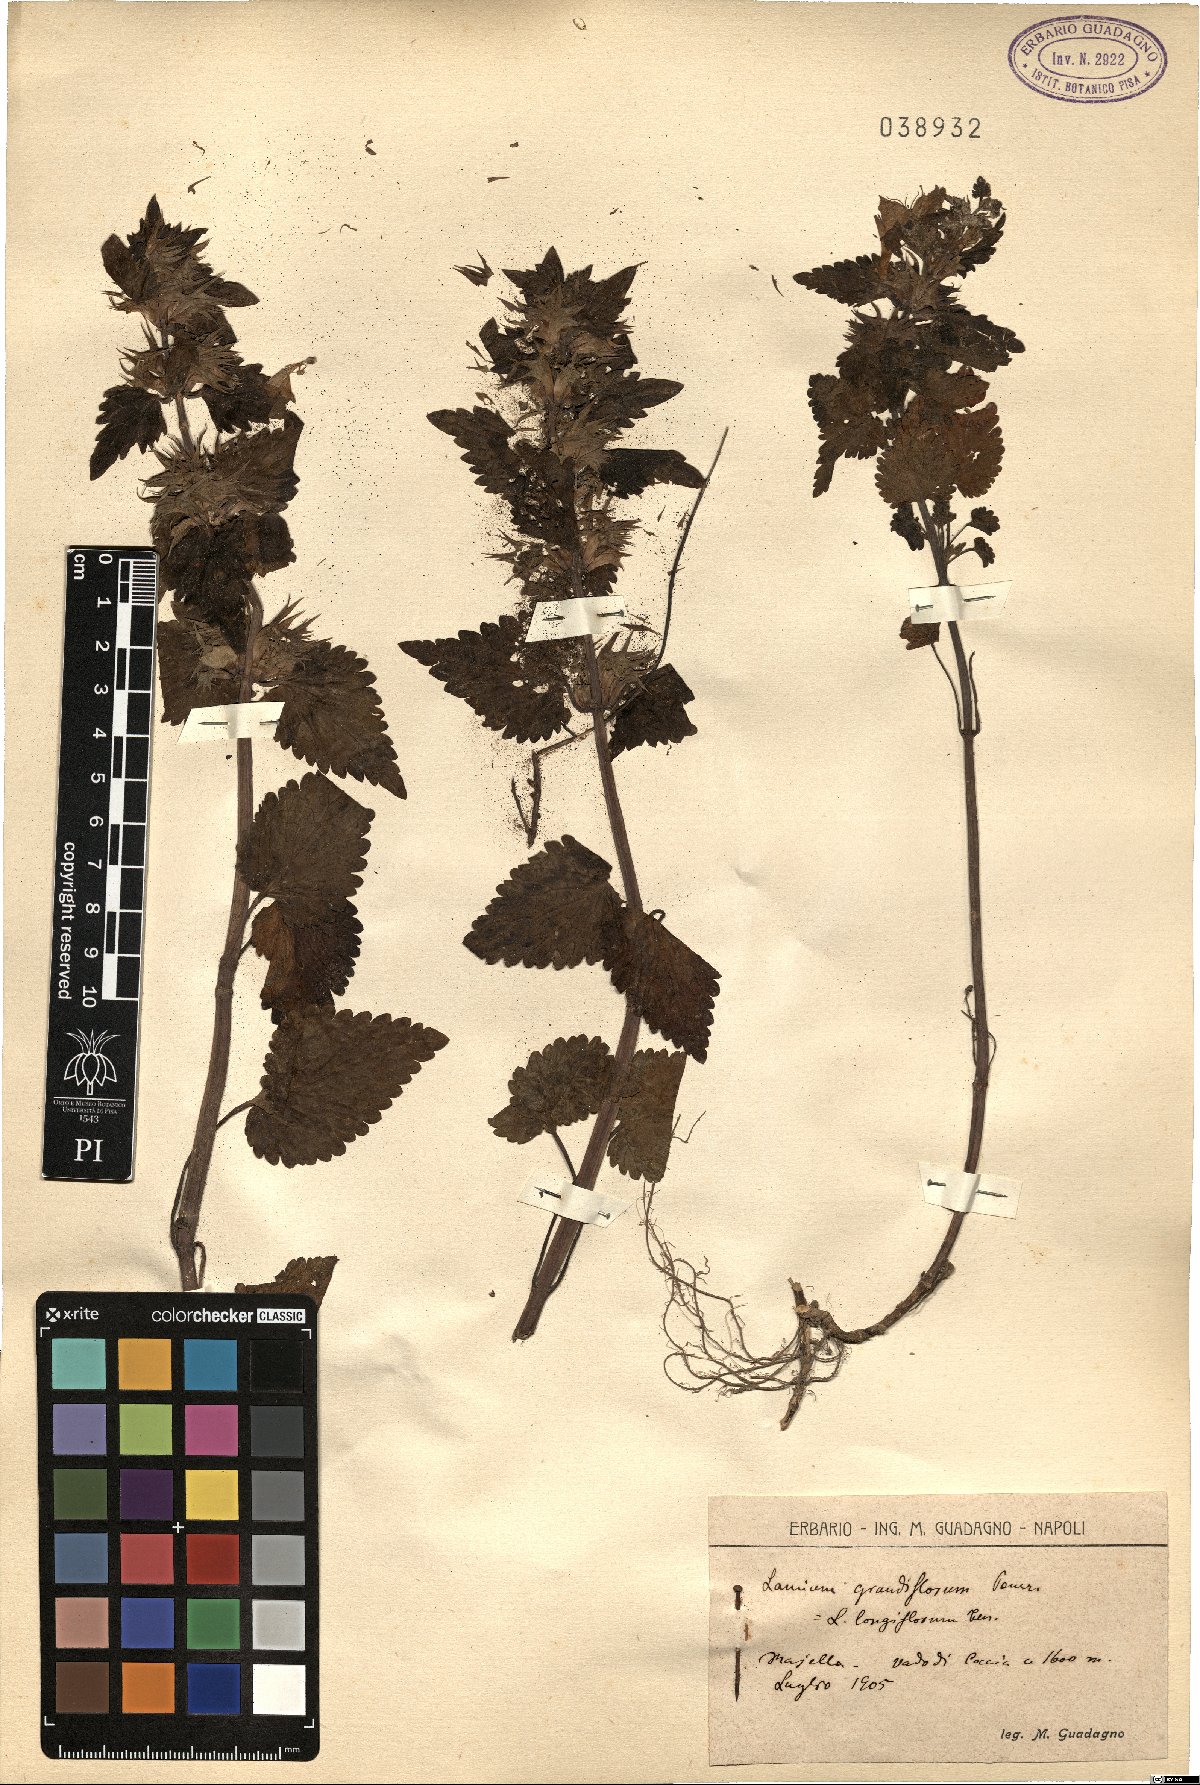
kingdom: Plantae
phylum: Tracheophyta
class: Magnoliopsida
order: Lamiales
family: Lamiaceae
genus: Lamium
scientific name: Lamium garganicum
